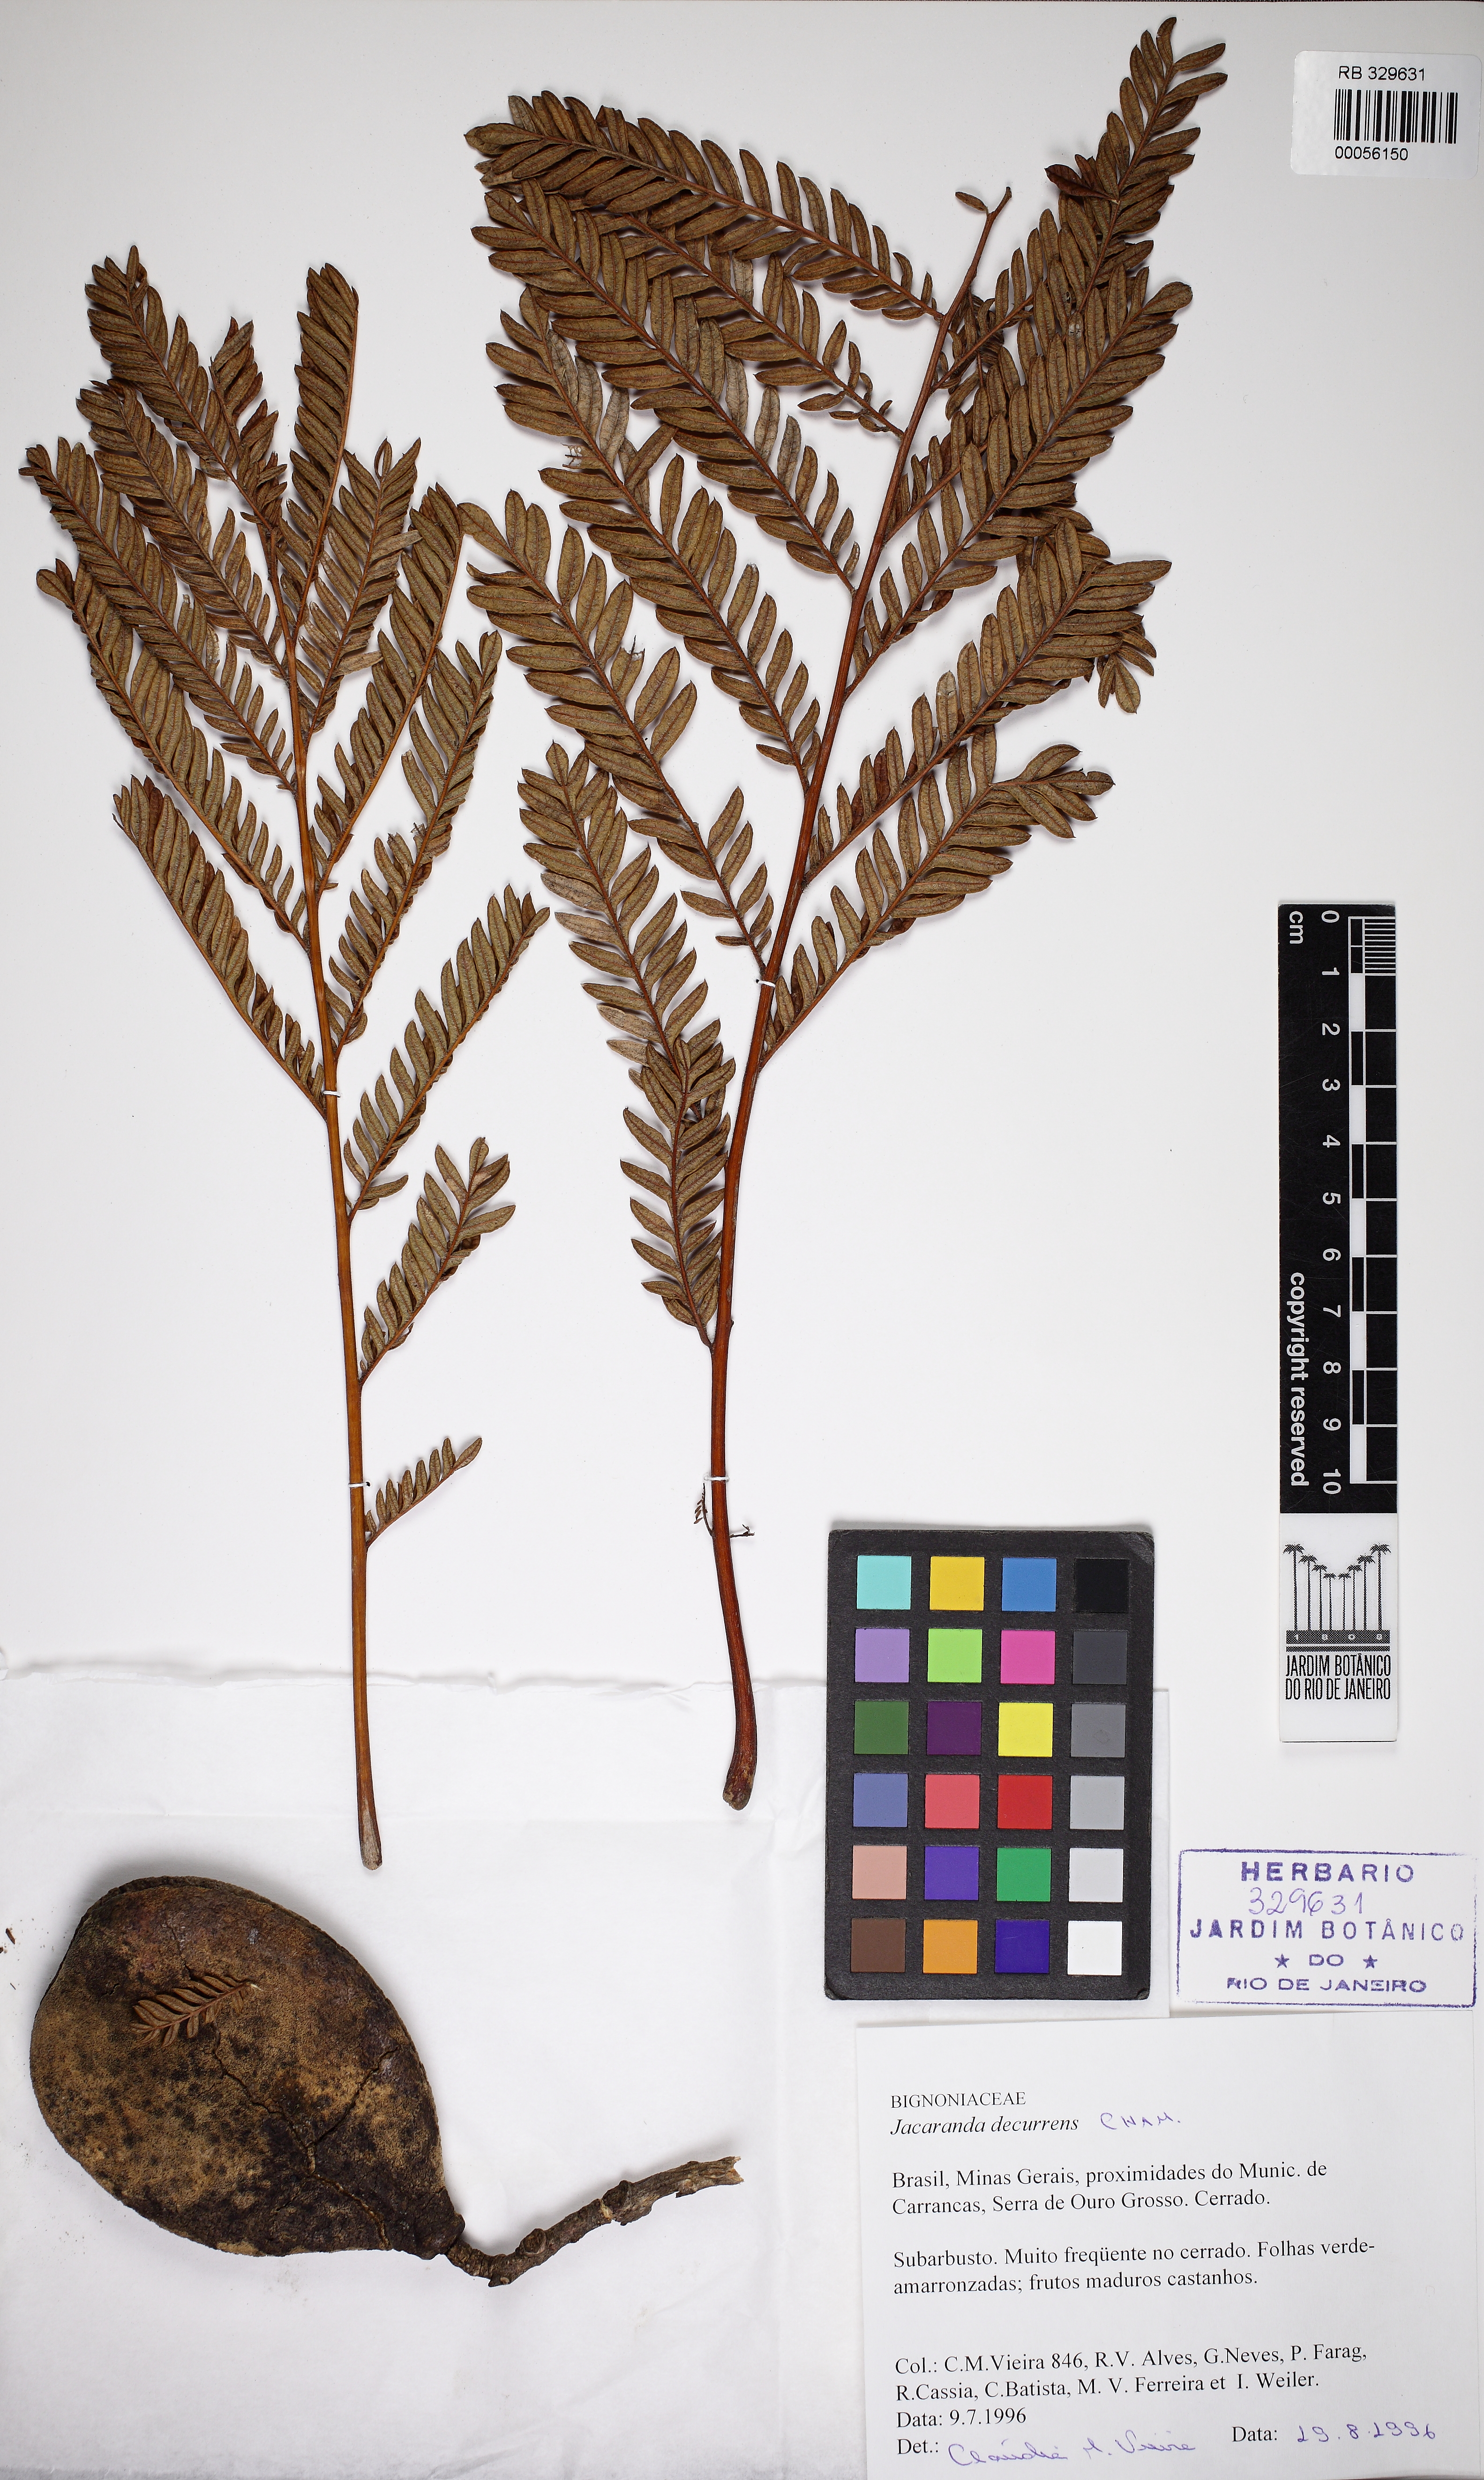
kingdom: Plantae
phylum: Tracheophyta
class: Magnoliopsida
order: Lamiales
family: Bignoniaceae
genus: Jacaranda
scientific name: Jacaranda decurrens
